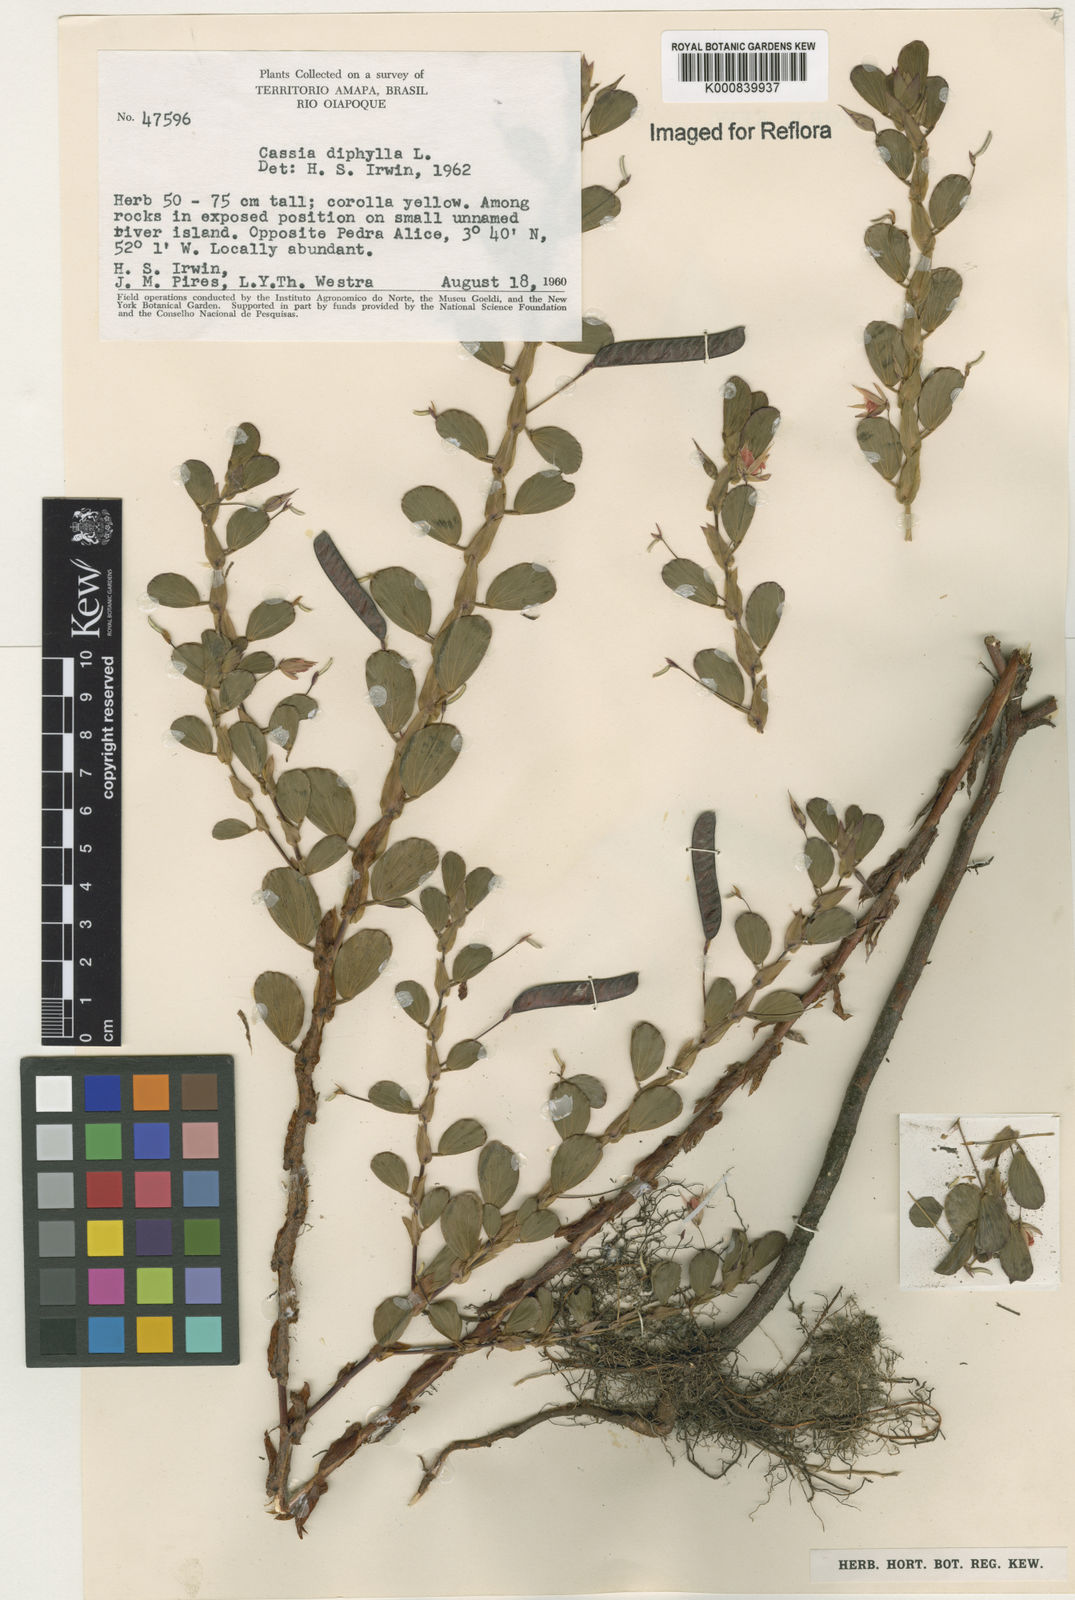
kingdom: Plantae
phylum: Tracheophyta
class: Magnoliopsida
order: Fabales
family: Fabaceae
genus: Chamaecrista
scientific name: Chamaecrista diphylla
